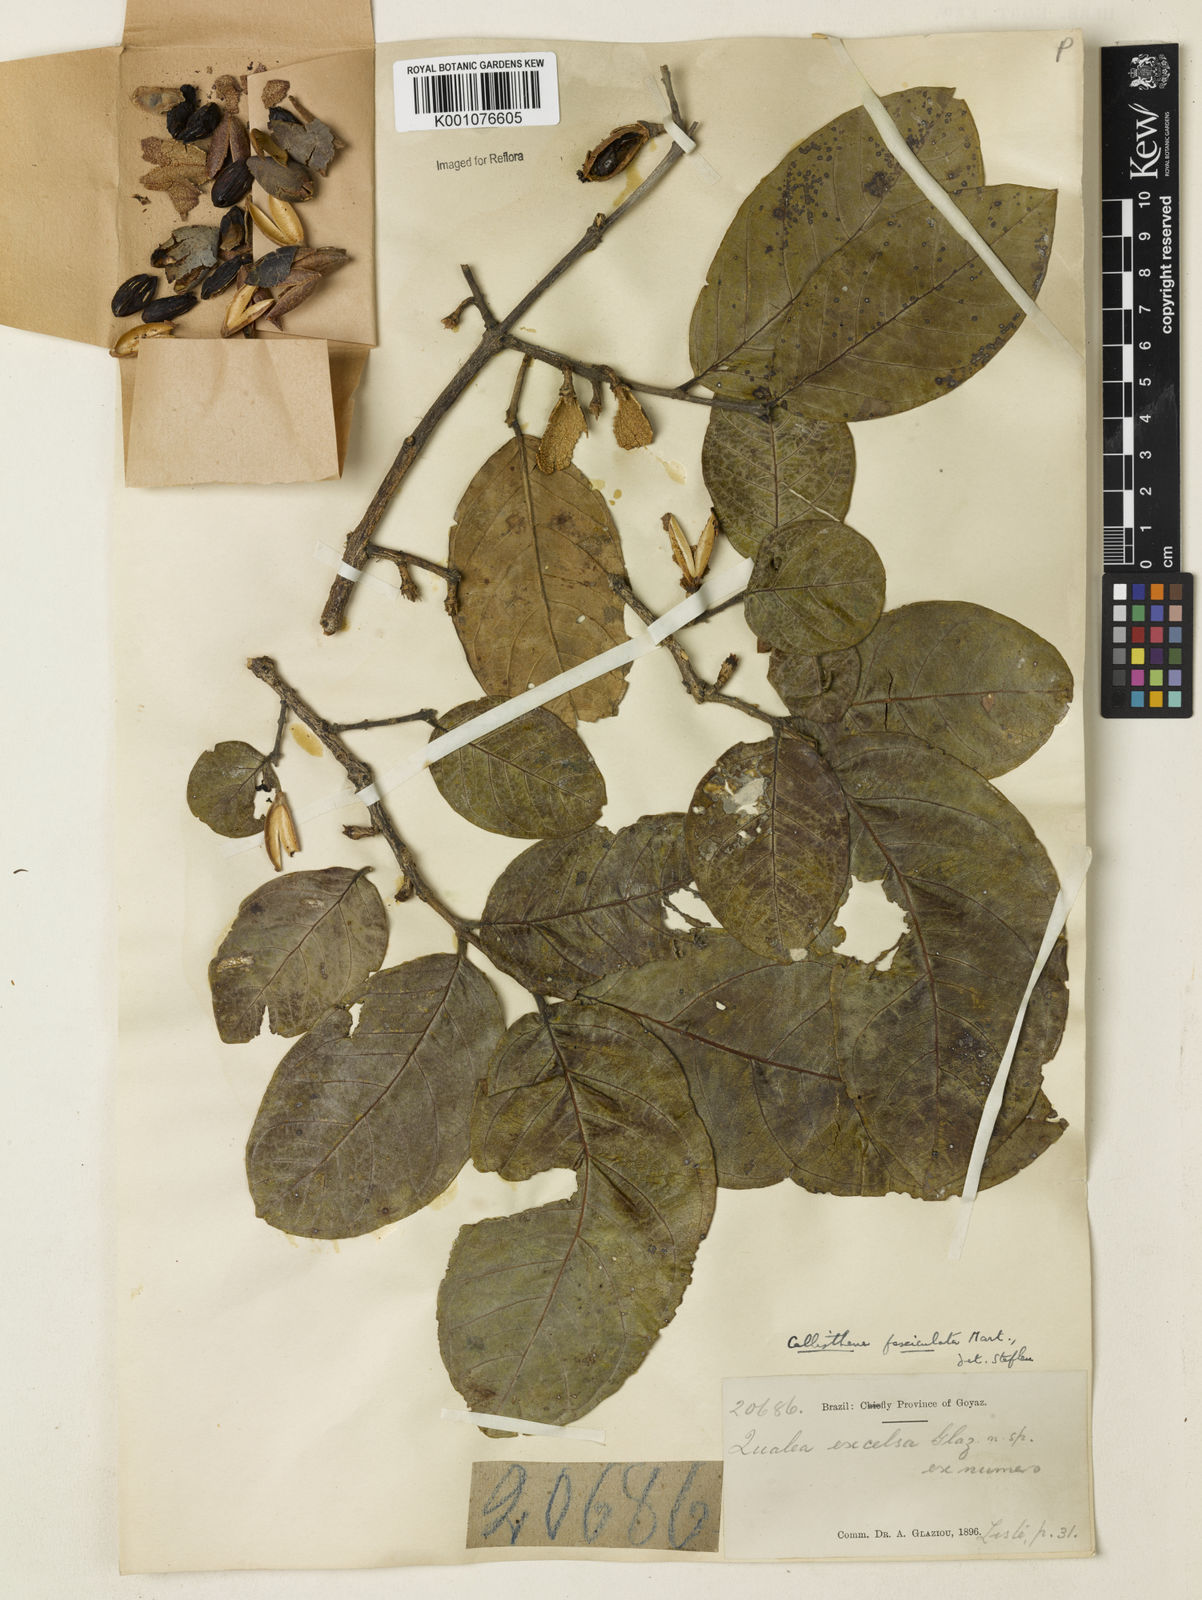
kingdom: Plantae
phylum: Tracheophyta
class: Magnoliopsida
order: Myrtales
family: Vochysiaceae
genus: Callisthene
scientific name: Callisthene fasciculata
